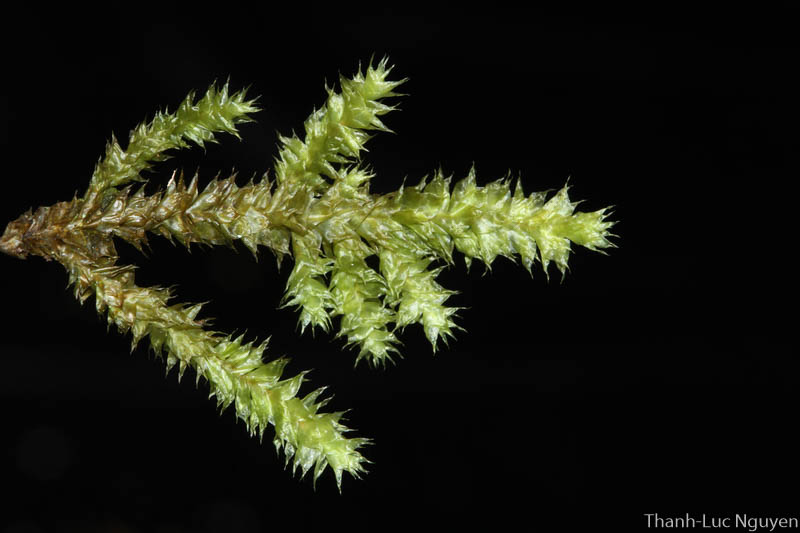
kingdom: Plantae
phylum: Bryophyta
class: Bryopsida
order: Hypnales
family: Pterobryaceae
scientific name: Pterobryaceae
